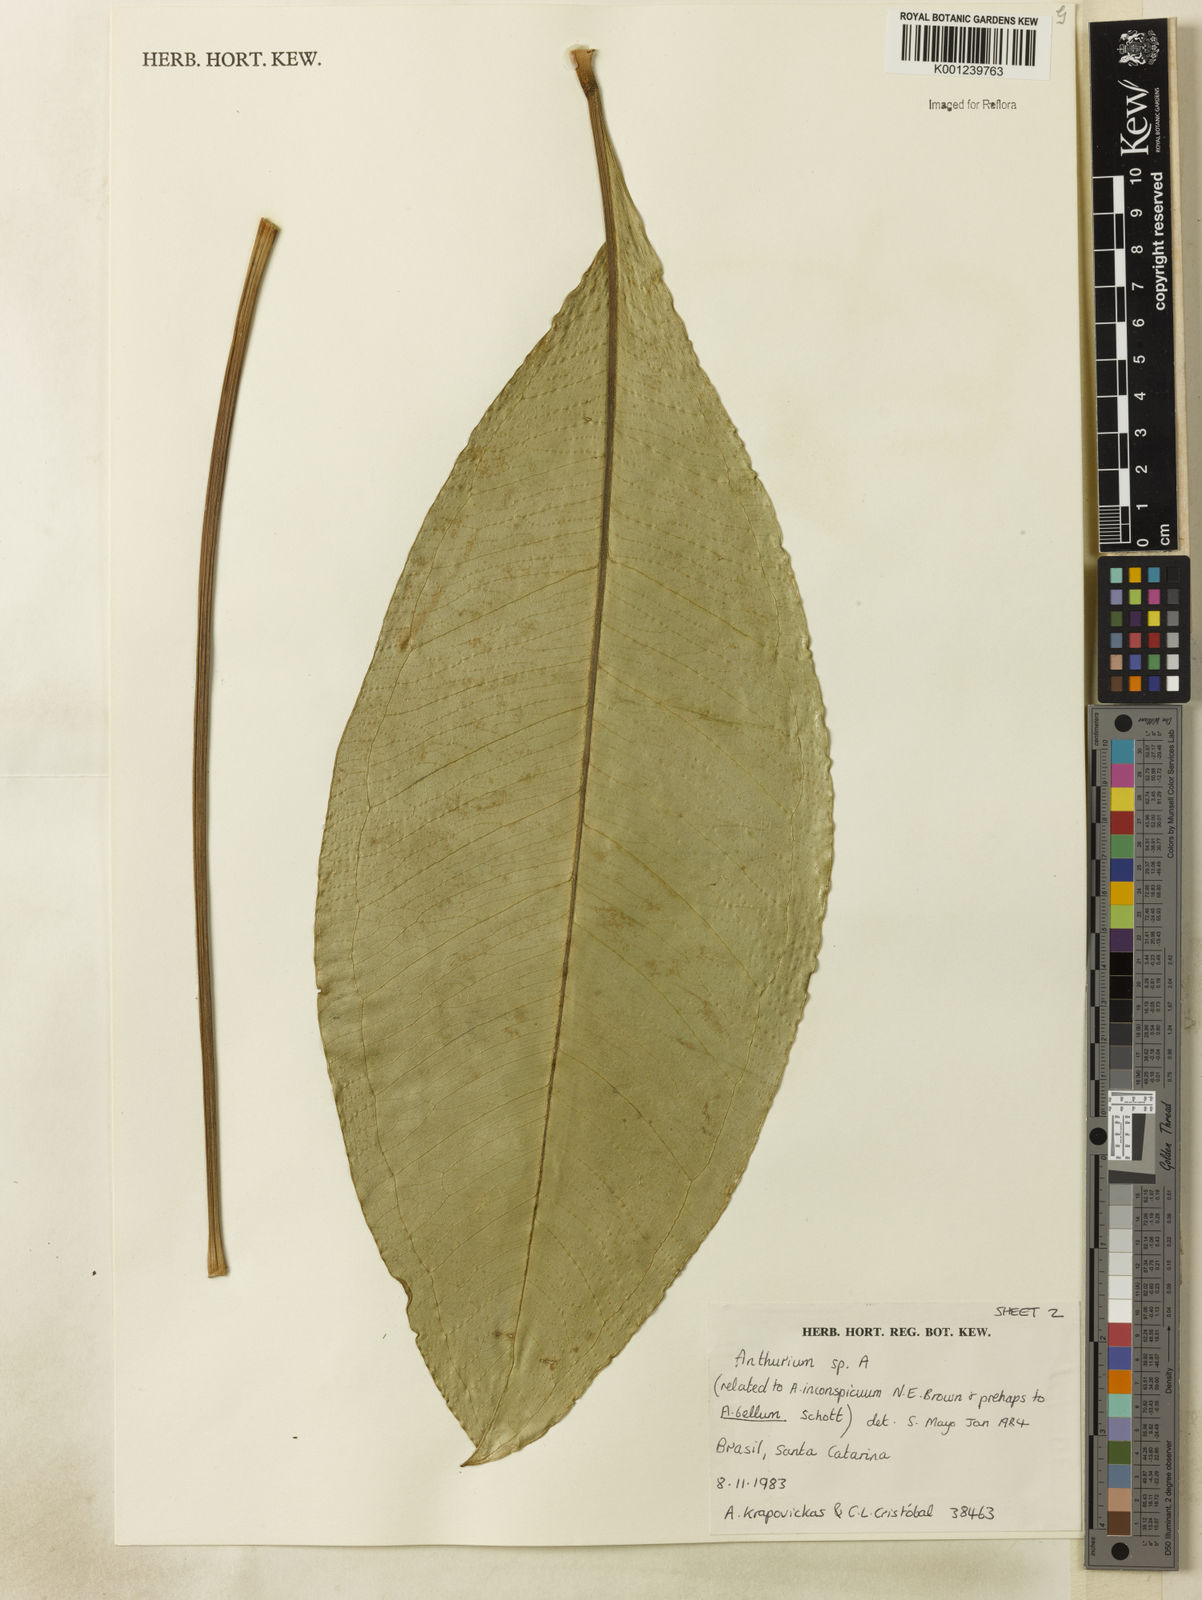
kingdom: Plantae
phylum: Tracheophyta
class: Liliopsida
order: Alismatales
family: Araceae
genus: Anthurium
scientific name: Anthurium
